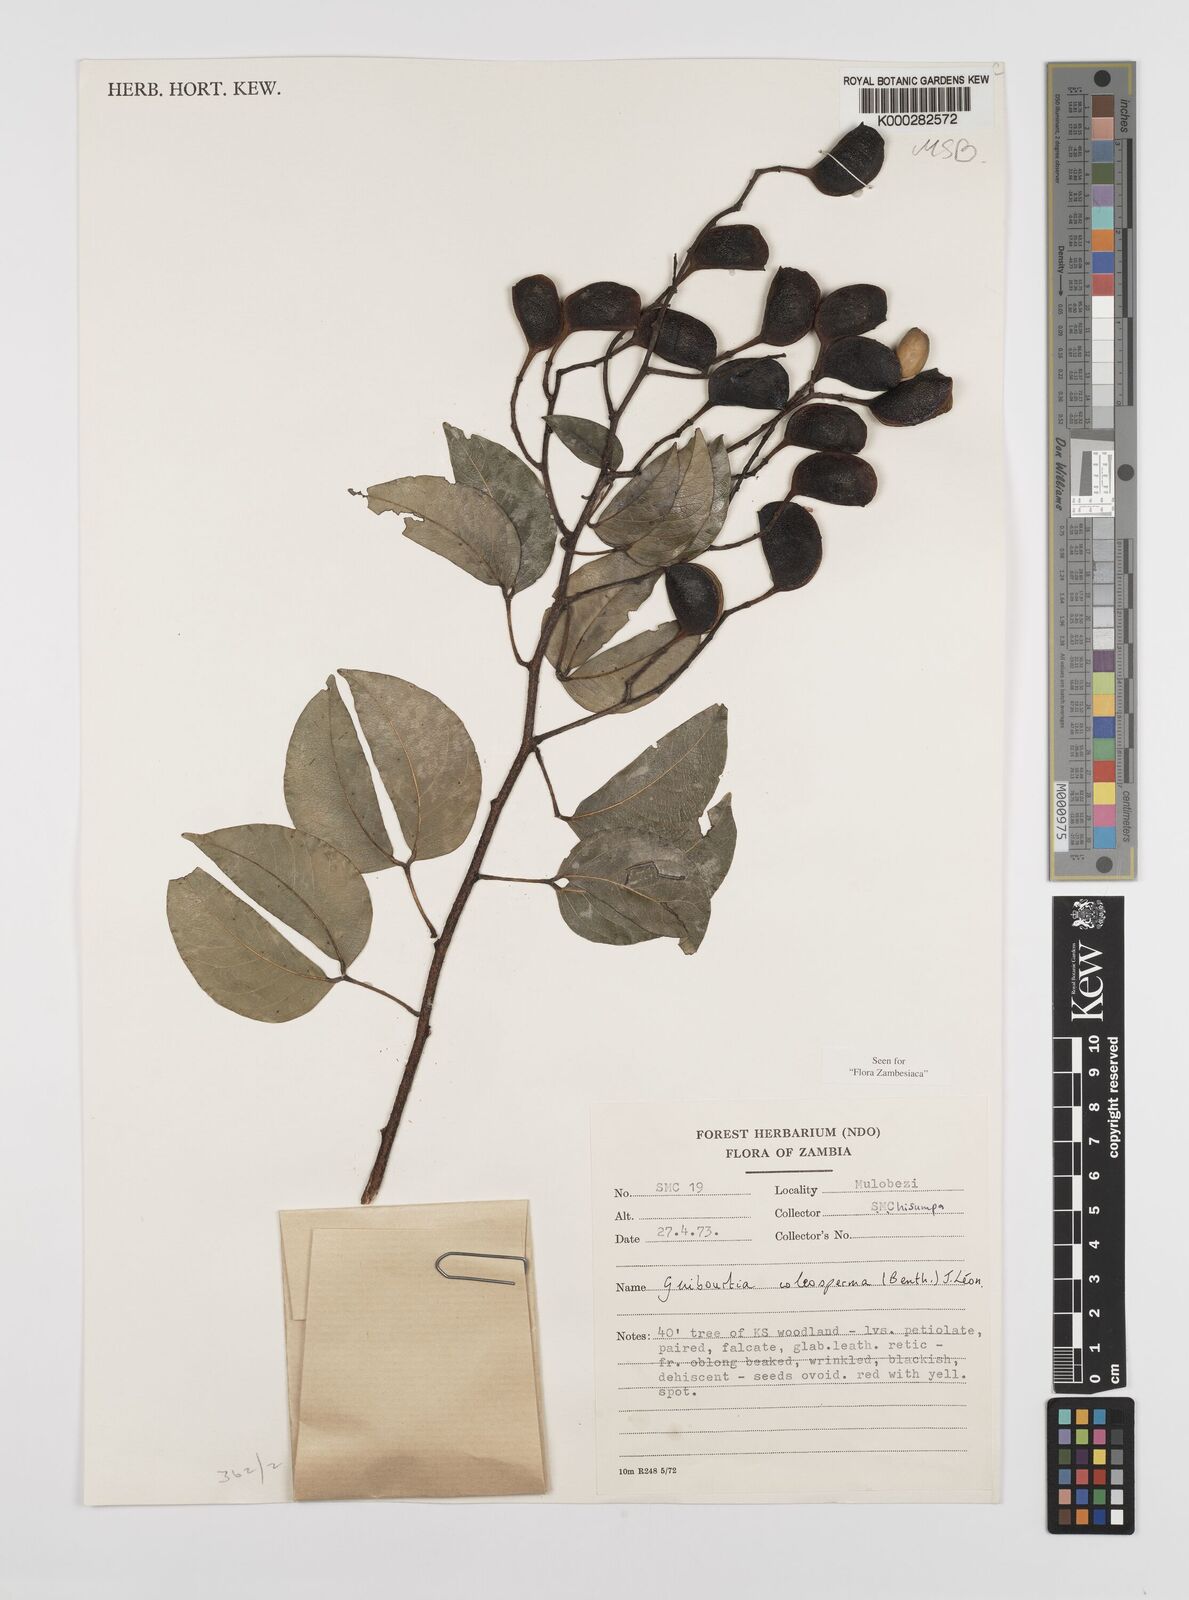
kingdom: Plantae
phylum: Tracheophyta
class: Magnoliopsida
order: Fabales
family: Fabaceae
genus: Guibourtia
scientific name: Guibourtia coleosperma
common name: African rosewoood
